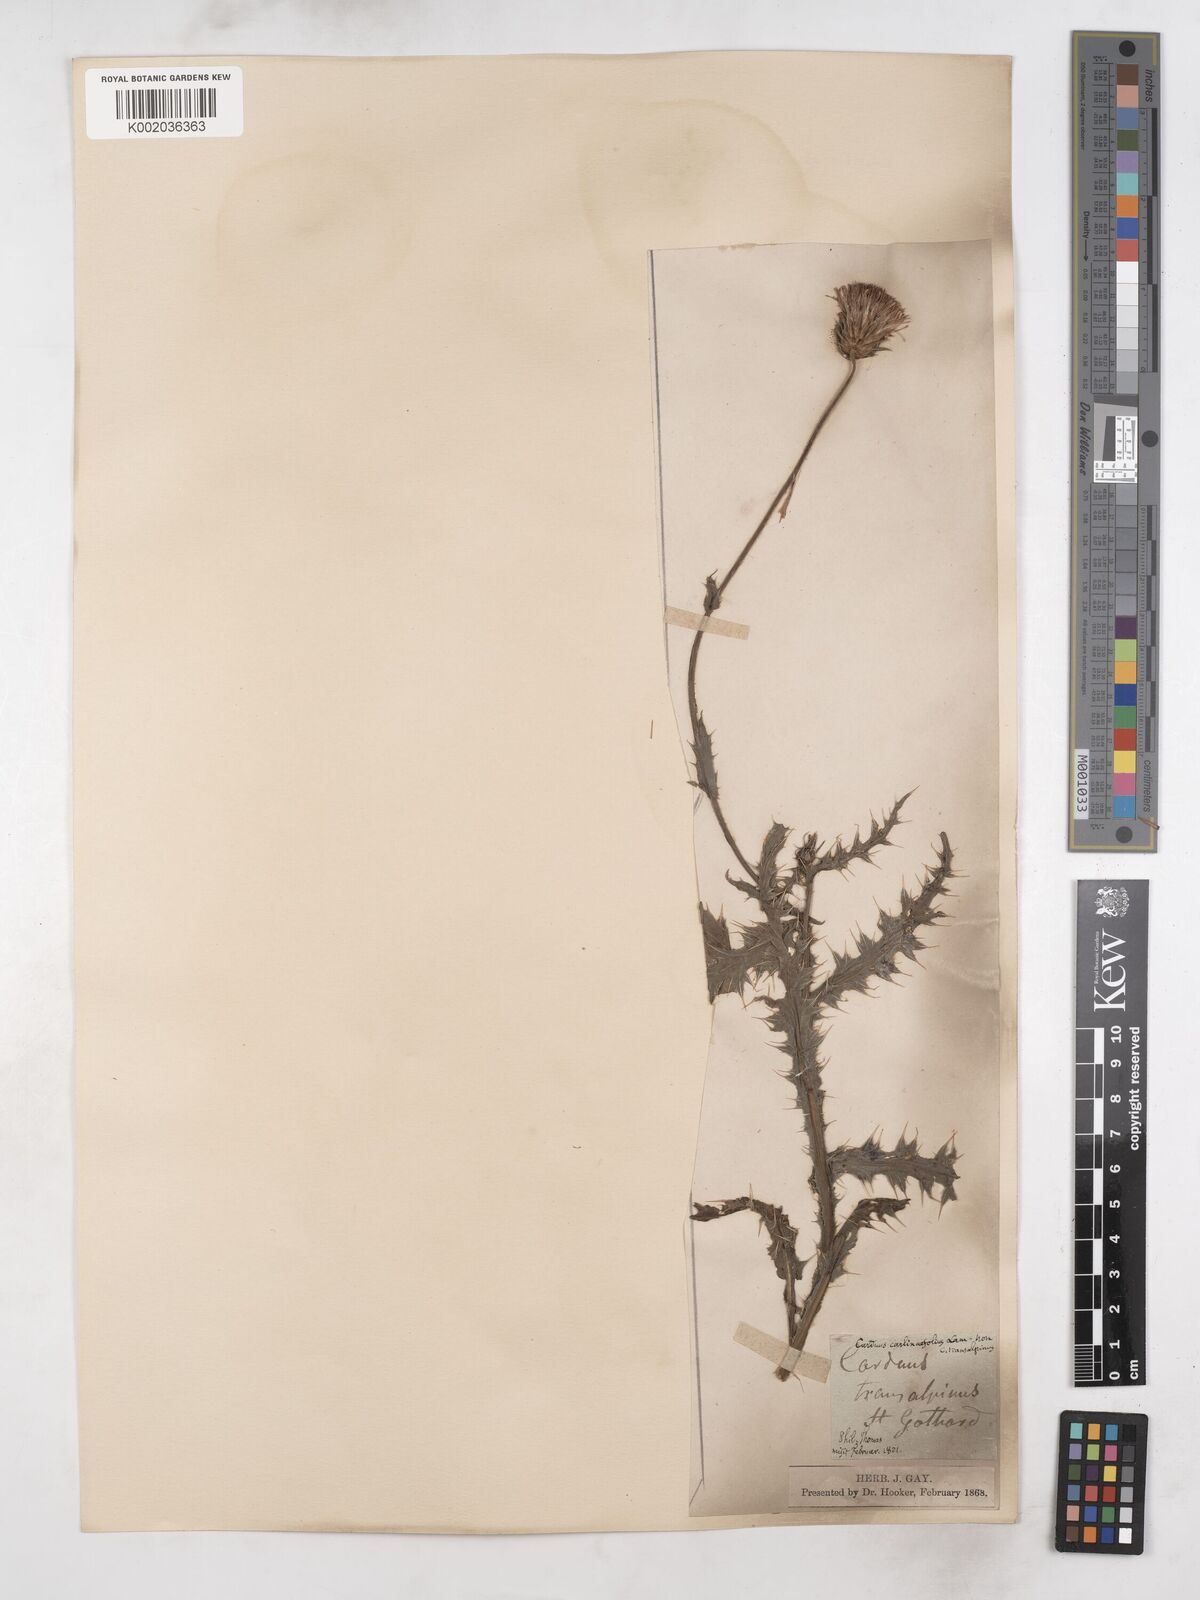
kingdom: Plantae
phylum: Tracheophyta
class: Magnoliopsida
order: Asterales
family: Asteraceae
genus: Carduus
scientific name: Carduus defloratus
